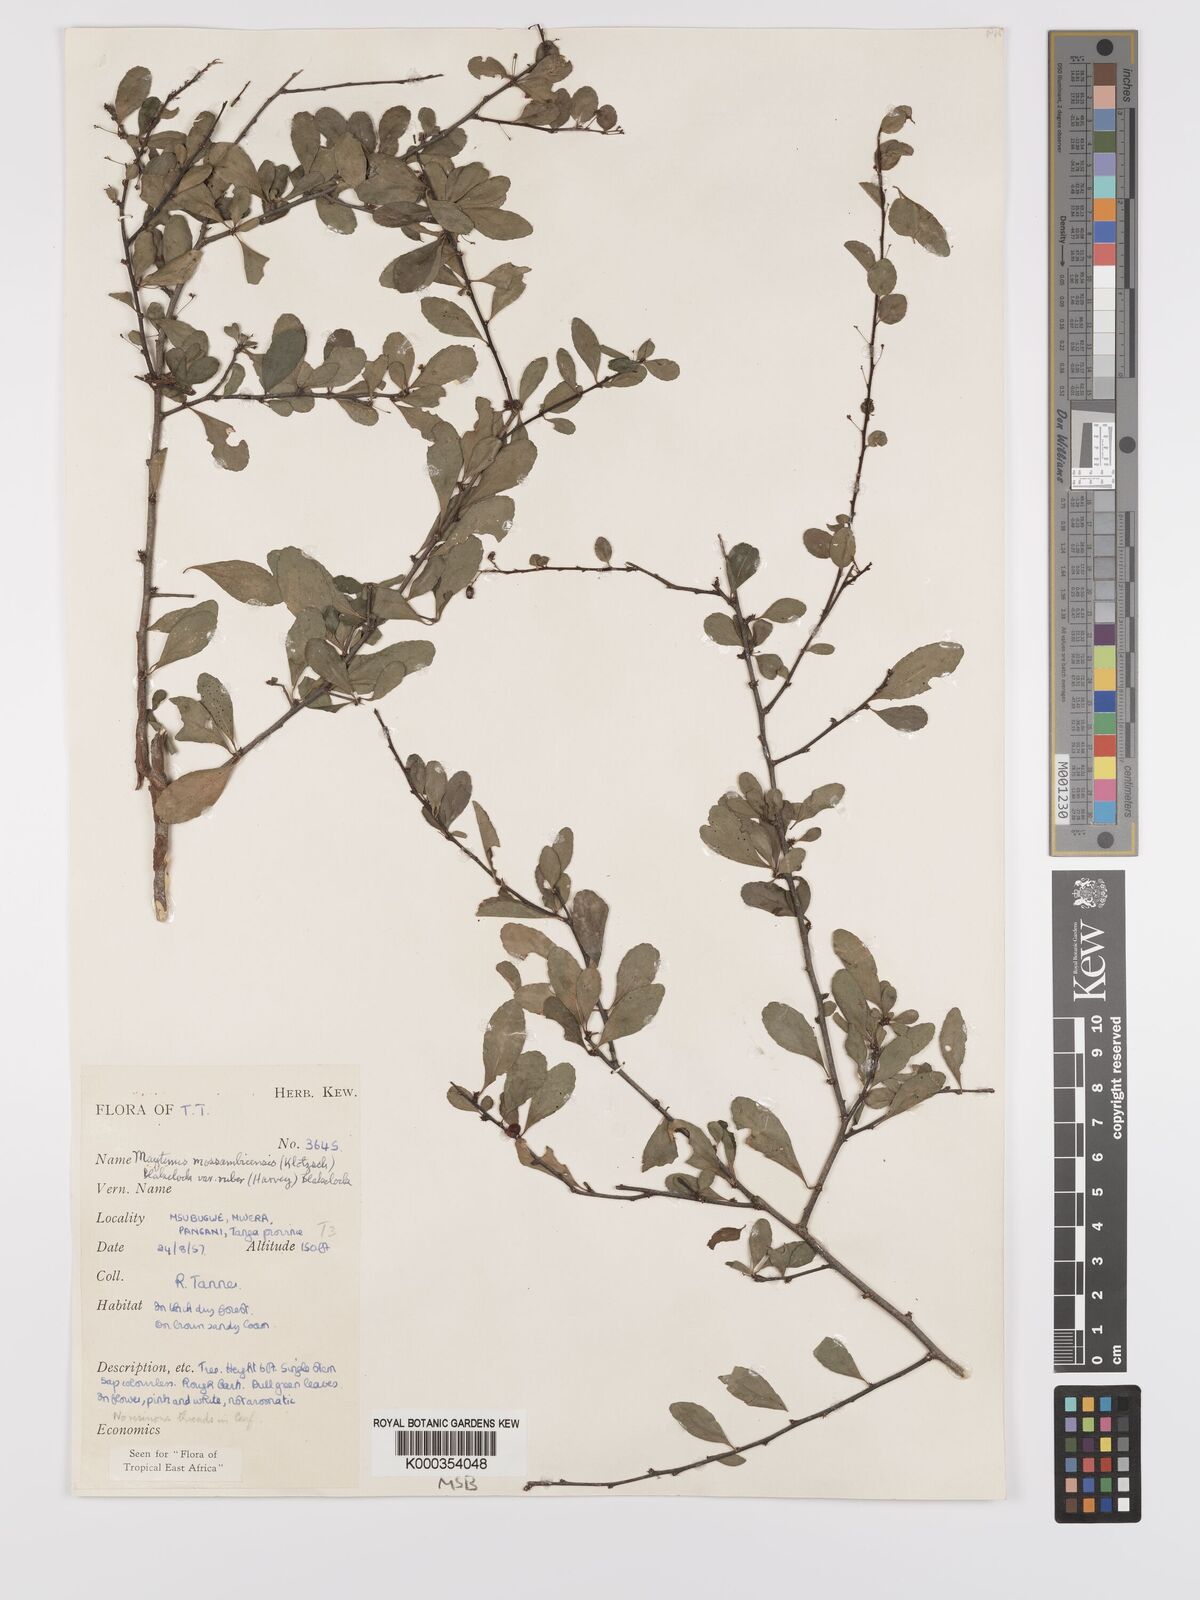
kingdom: Plantae
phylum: Tracheophyta
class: Magnoliopsida
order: Celastrales
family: Celastraceae
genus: Gymnosporia
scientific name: Gymnosporia mossambicensis
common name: Black forest spike-thorn
